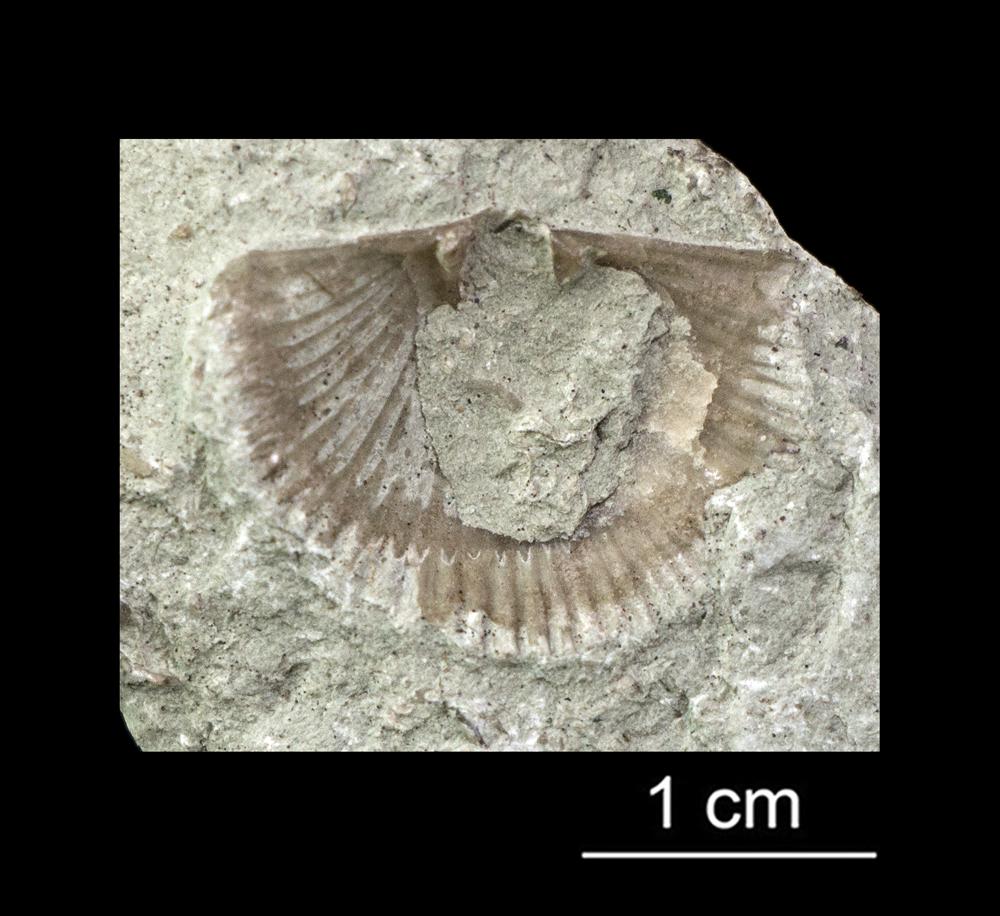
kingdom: Animalia
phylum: Brachiopoda
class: Rhynchonellata
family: Productorthidae
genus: Productorthis
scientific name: Productorthis Productus obtusus
